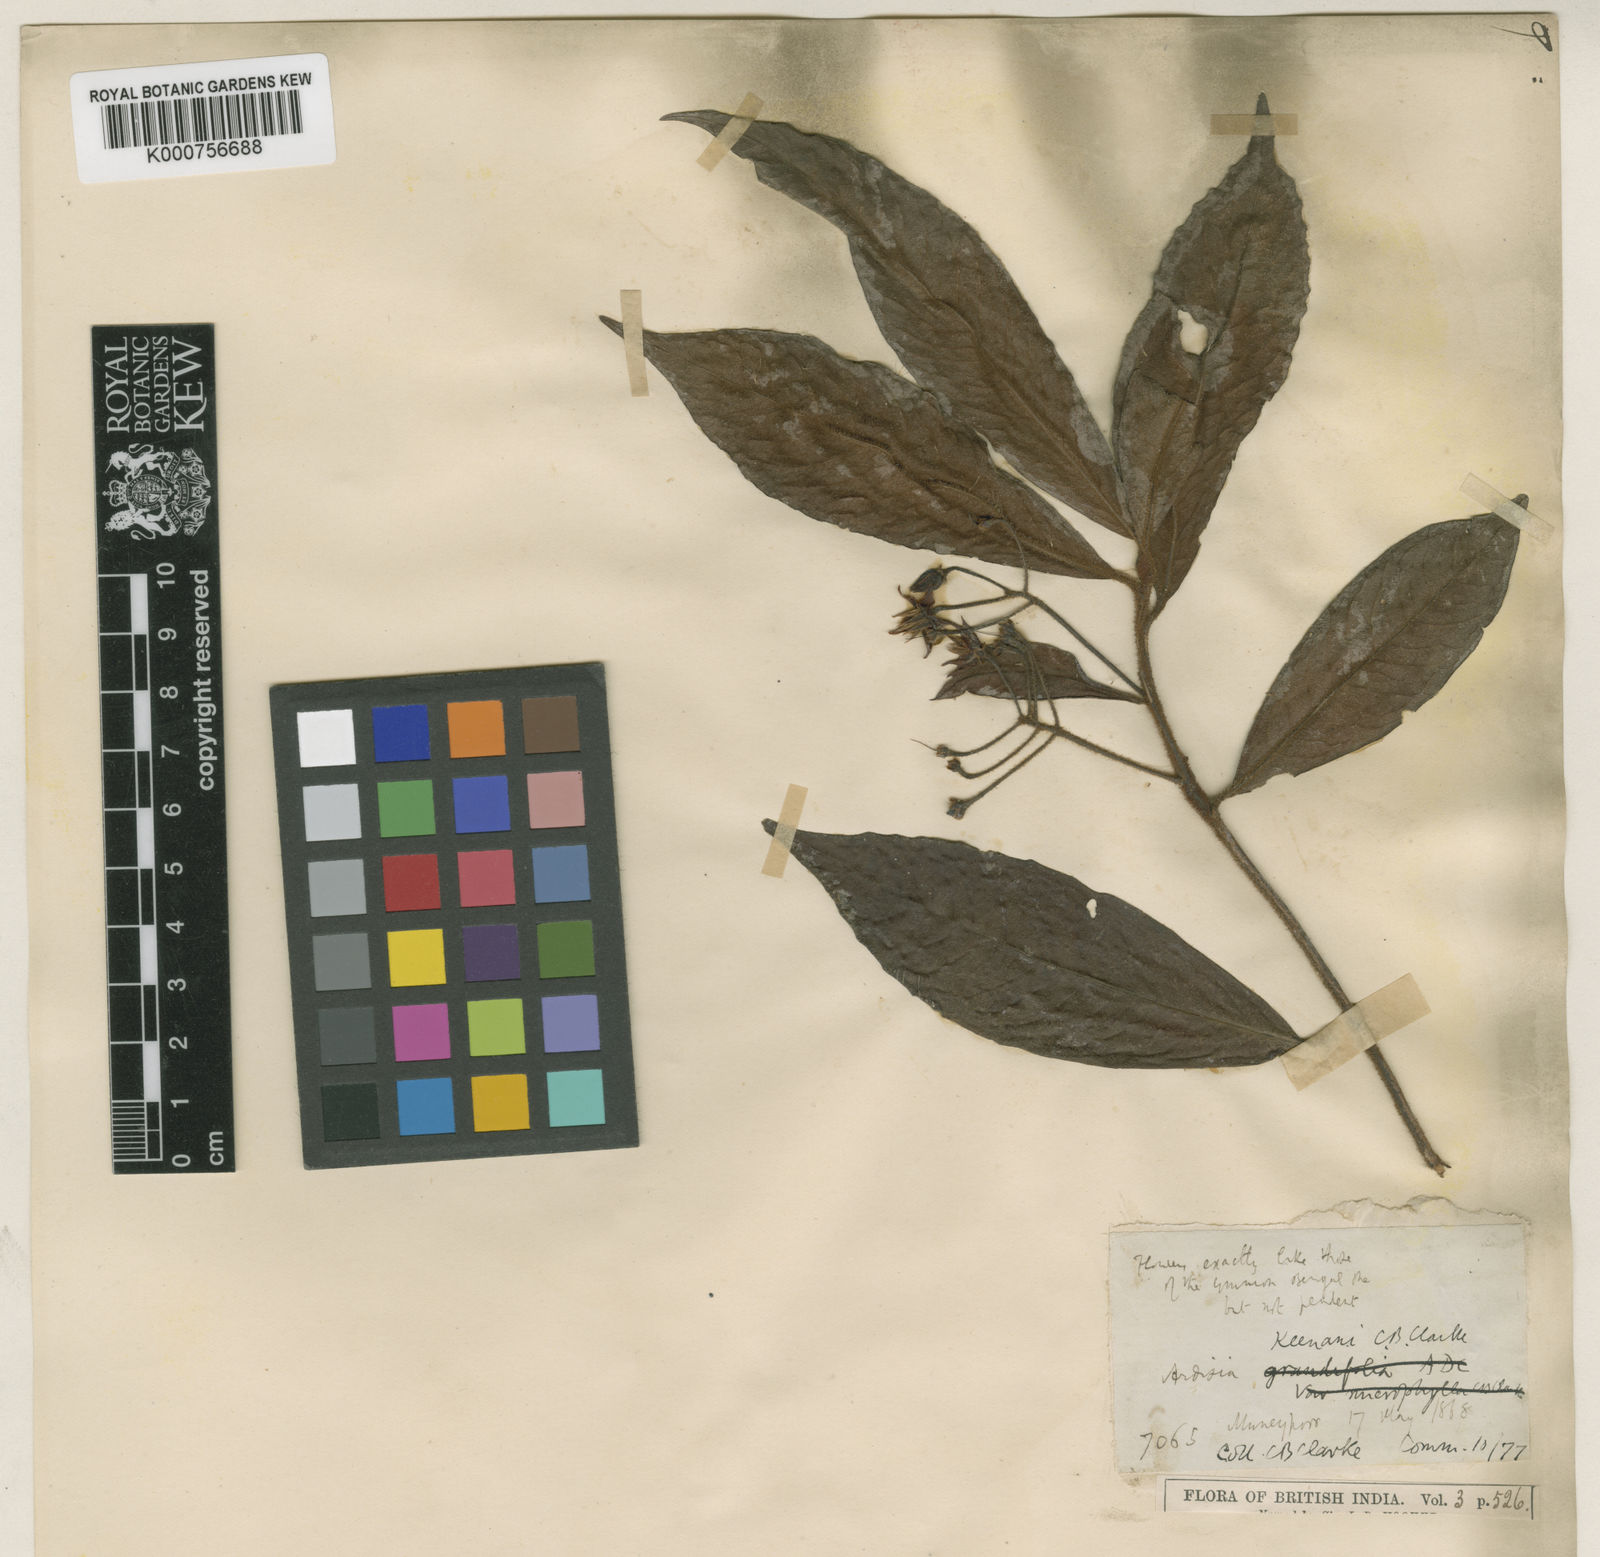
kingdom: Plantae
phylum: Tracheophyta
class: Magnoliopsida
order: Ericales
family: Primulaceae
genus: Ardisia
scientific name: Ardisia keenanii
